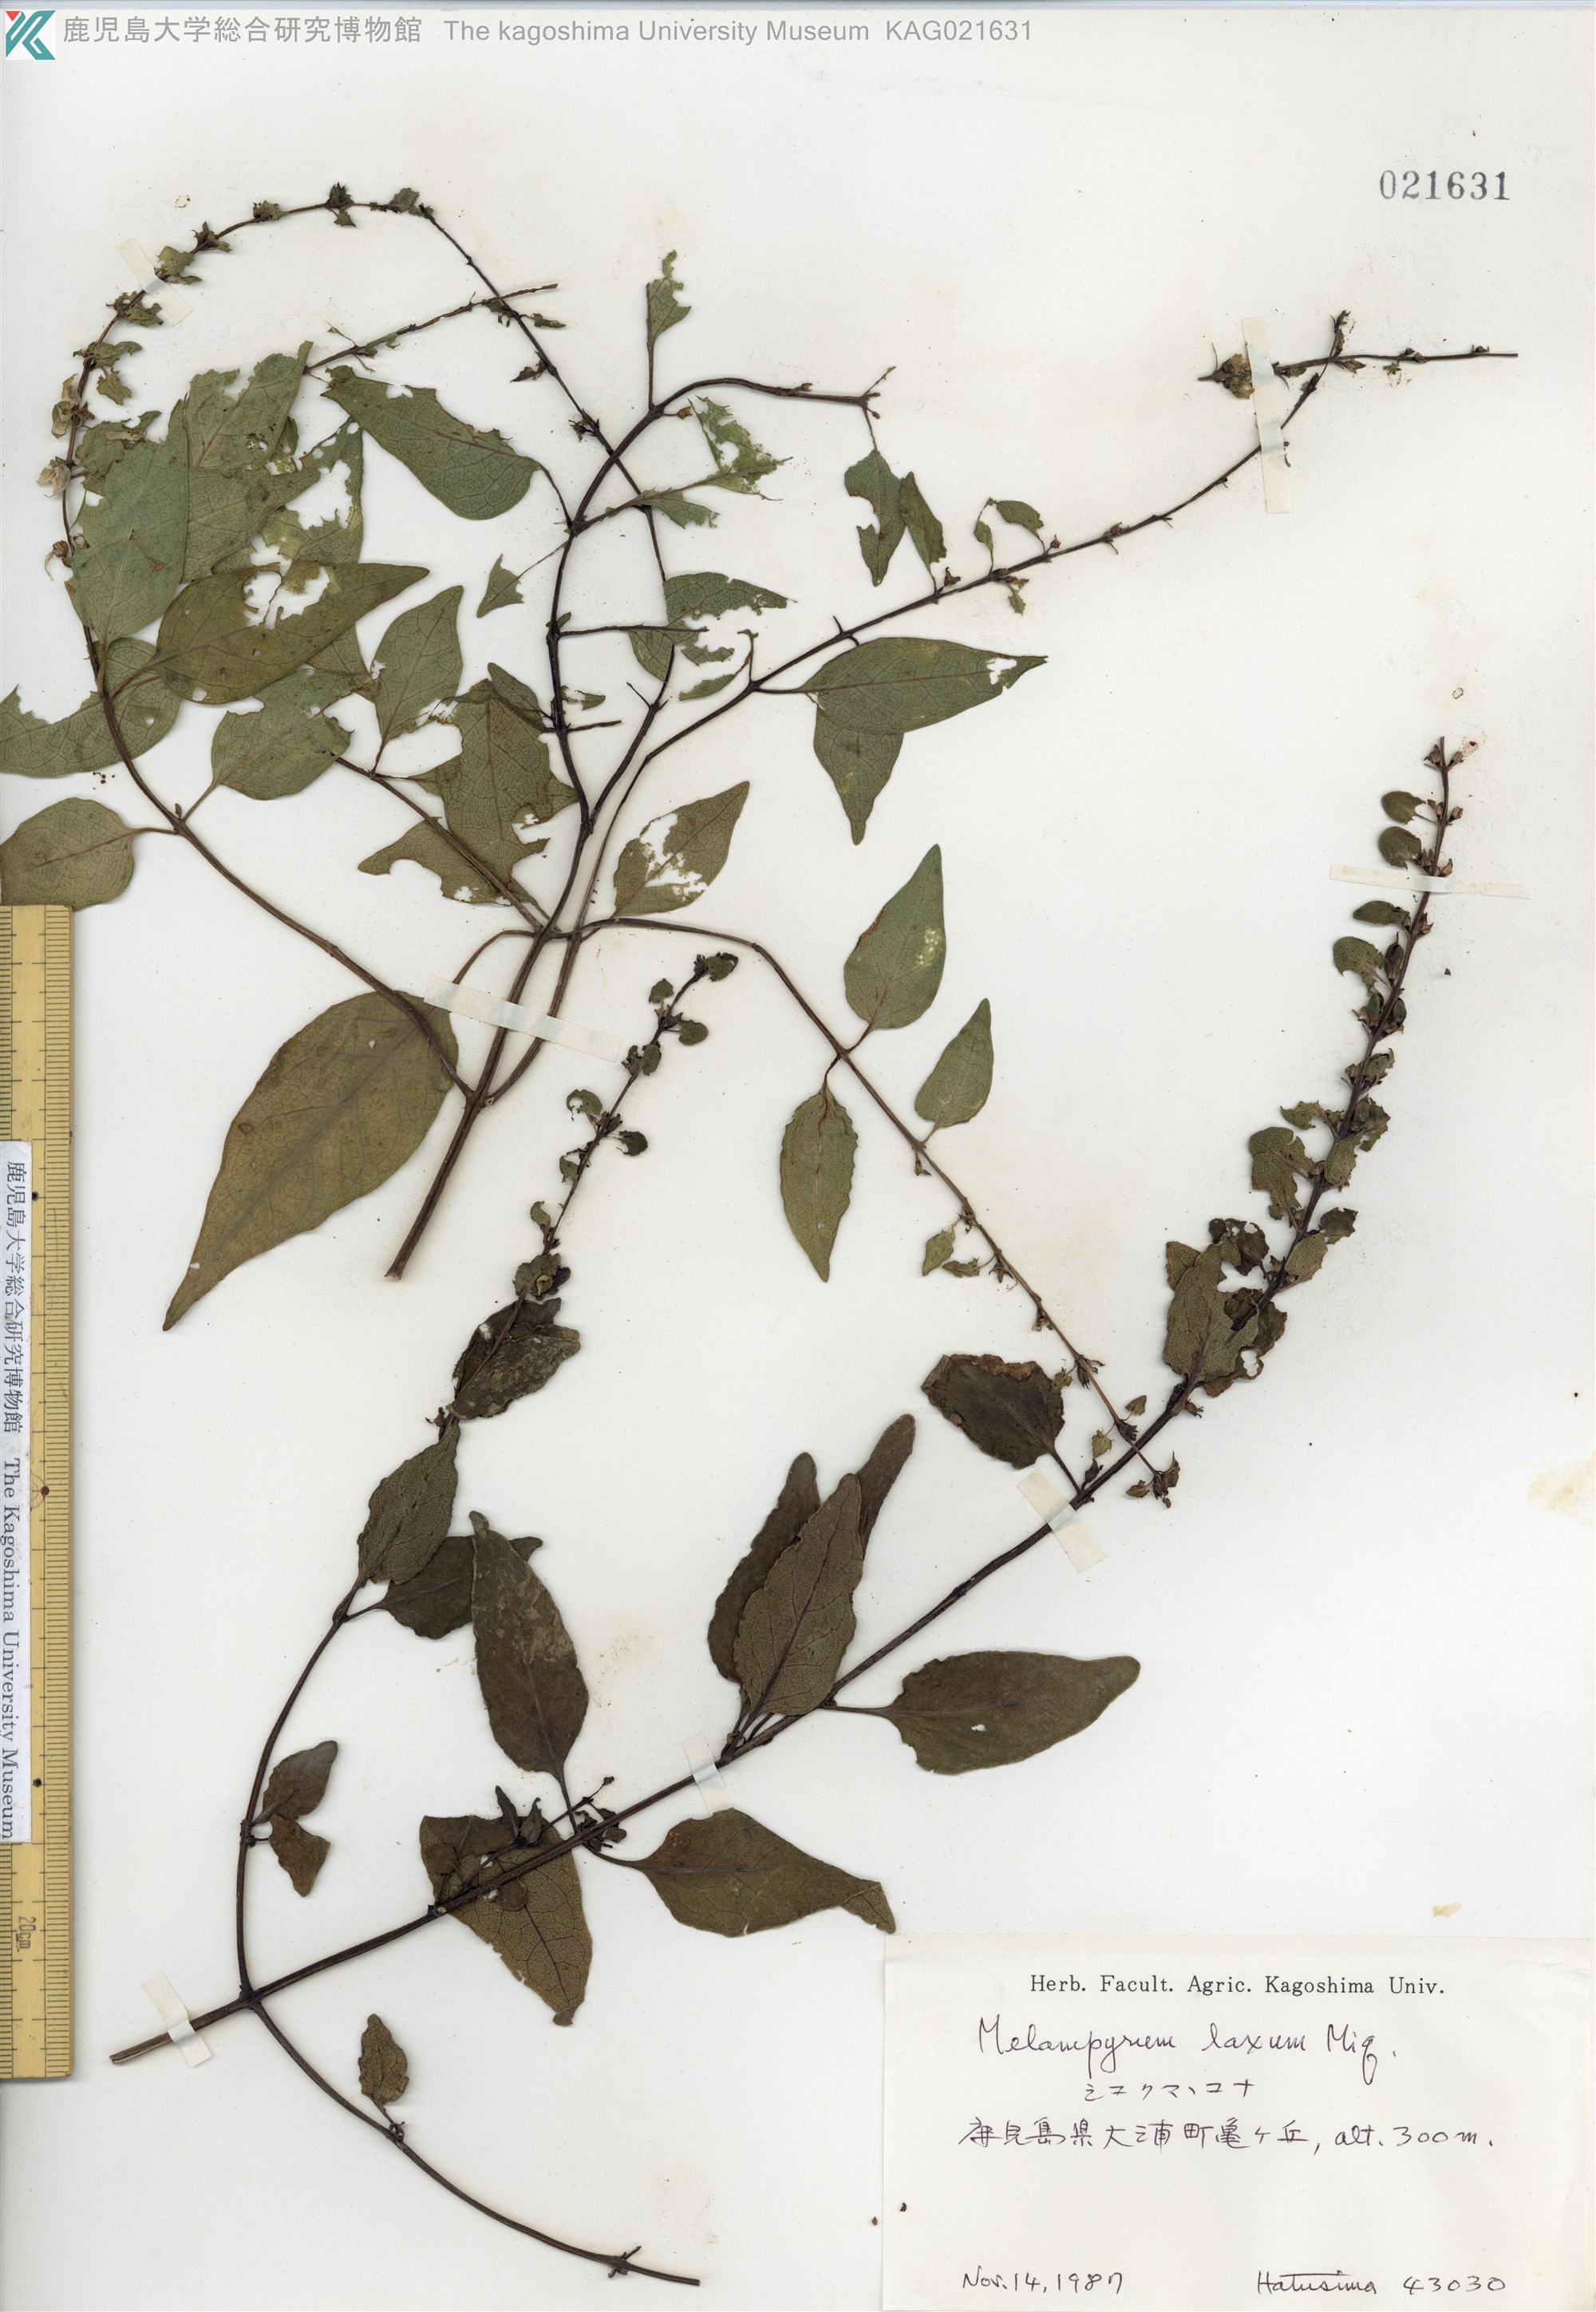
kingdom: Plantae
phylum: Tracheophyta
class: Magnoliopsida
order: Lamiales
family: Orobanchaceae
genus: Melampyrum
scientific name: Melampyrum laxum
